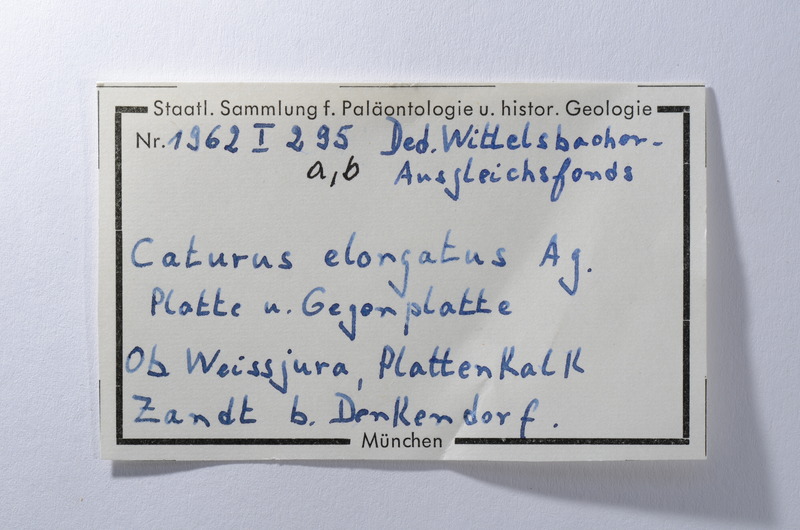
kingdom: Animalia
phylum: Chordata
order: Amiiformes
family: Caturidae
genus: Amblysemius
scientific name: Amblysemius bellicianus
